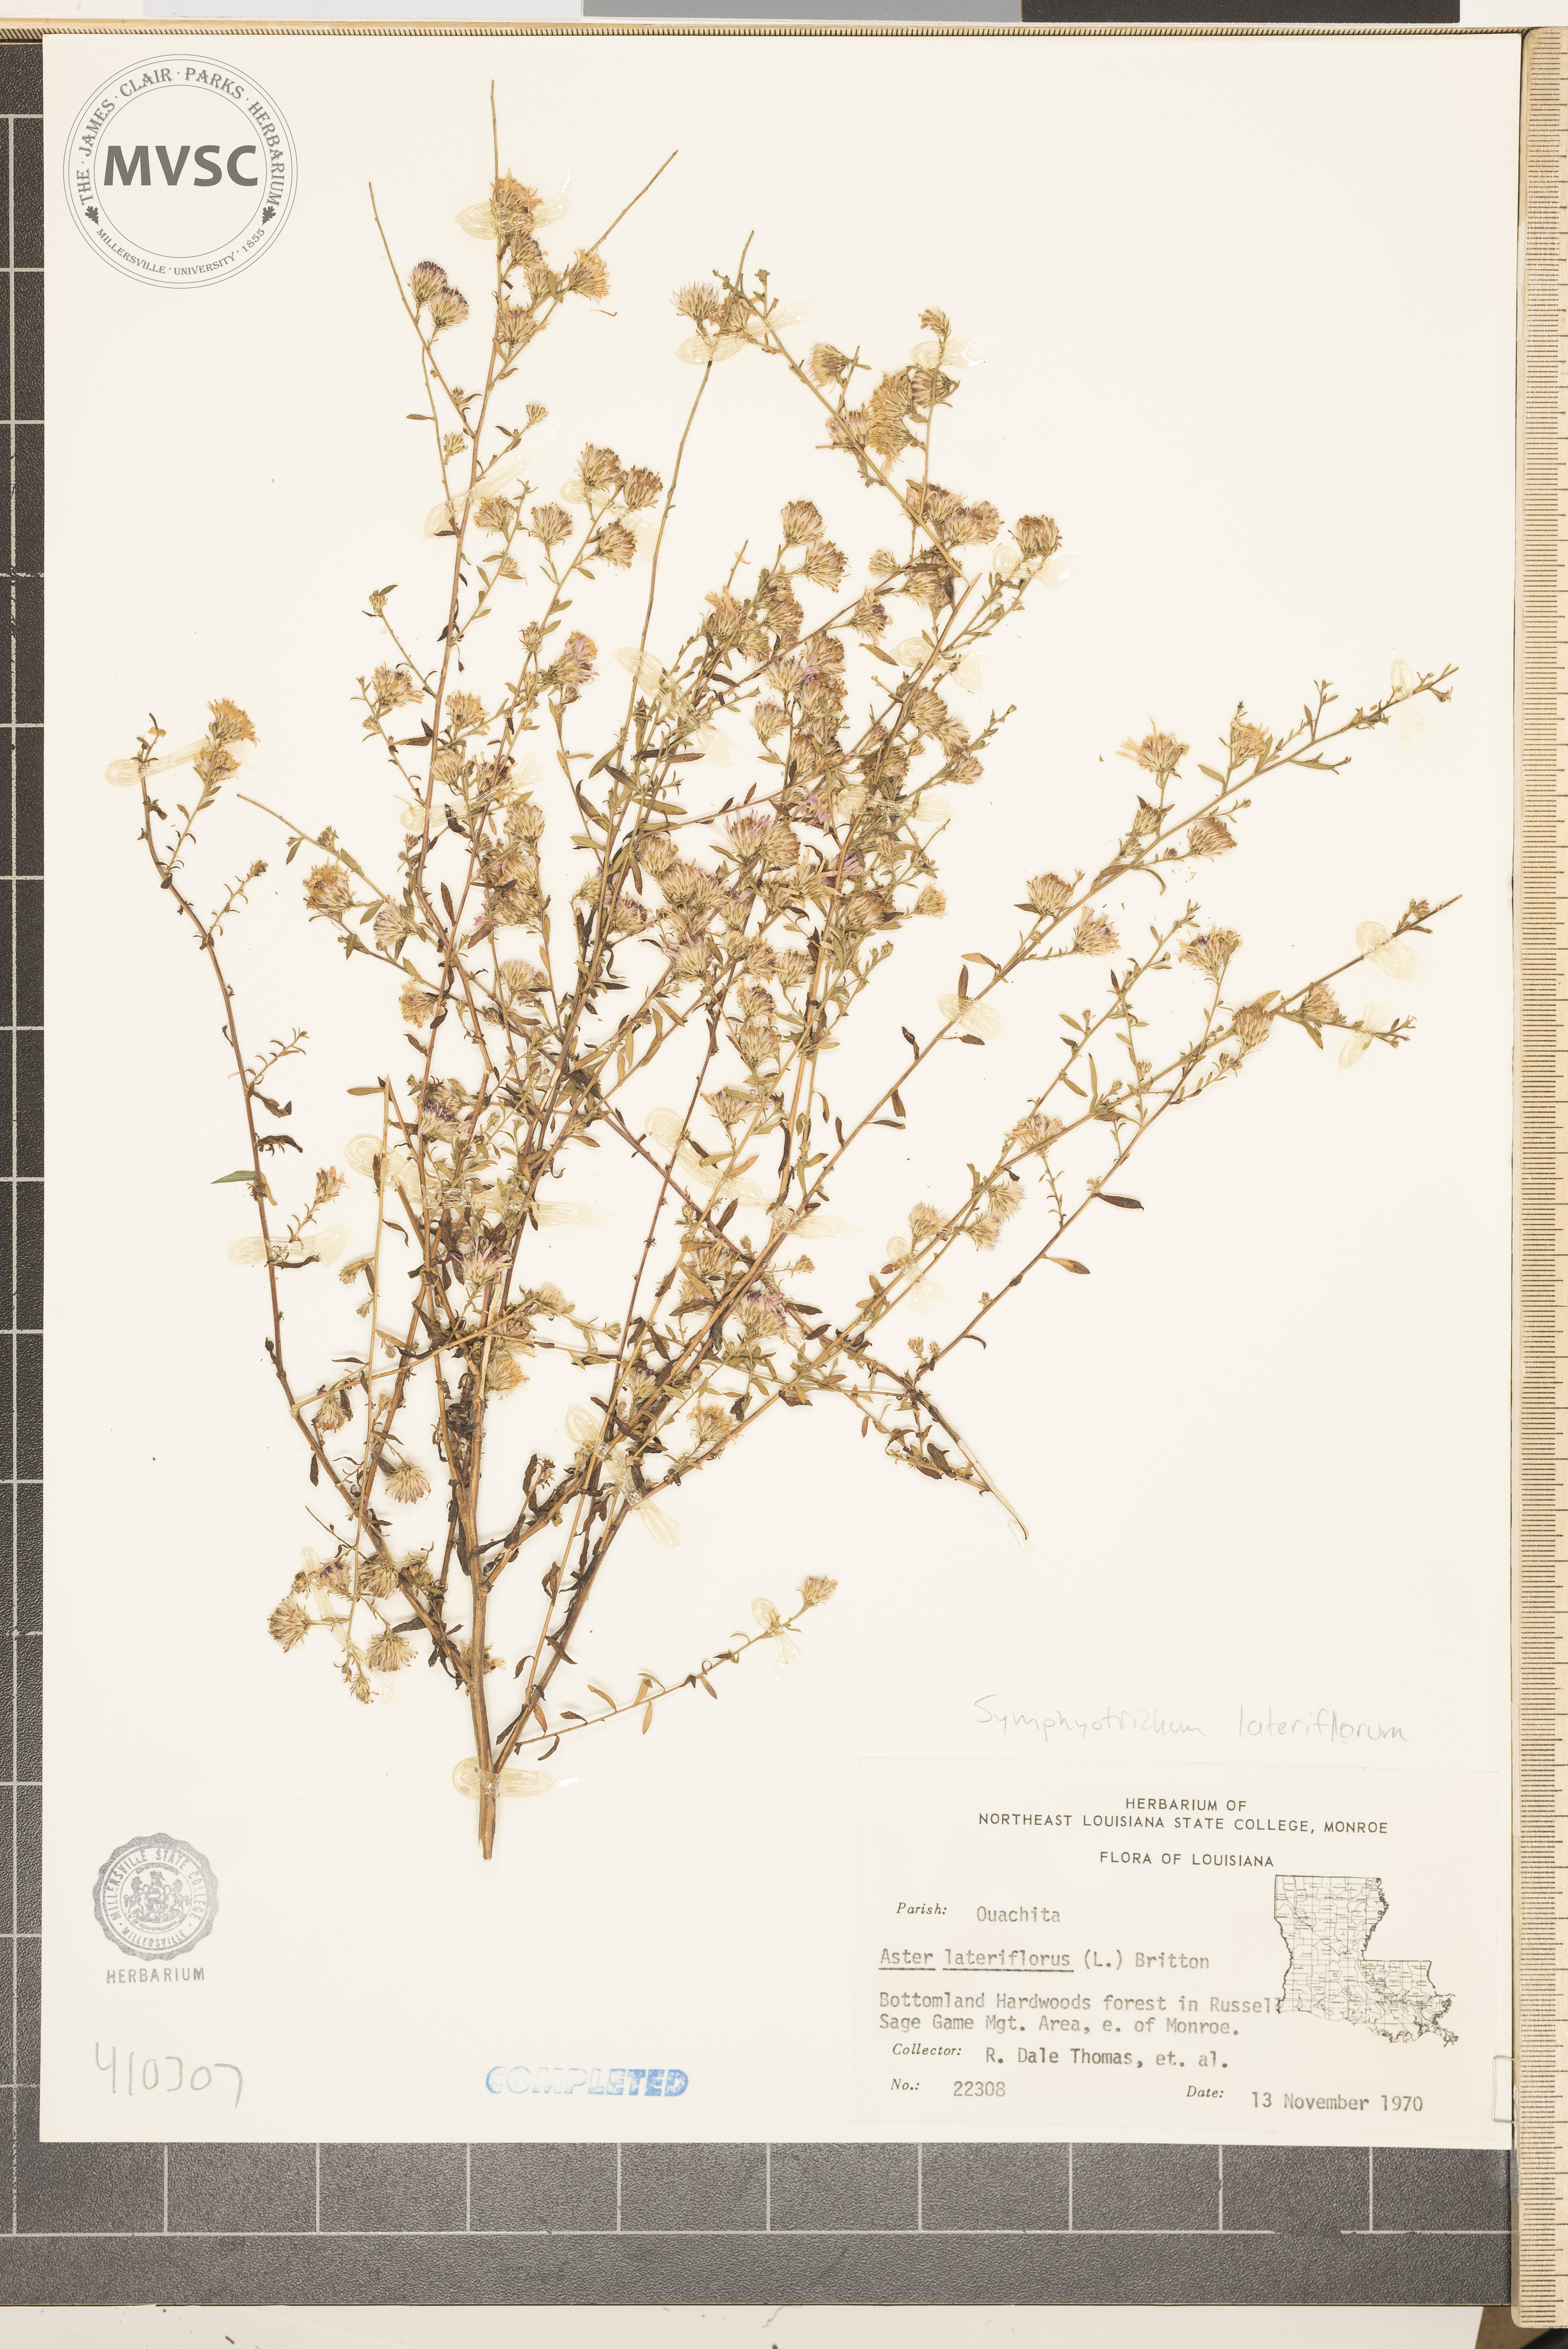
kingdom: Plantae
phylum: Tracheophyta
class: Magnoliopsida
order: Asterales
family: Asteraceae
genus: Symphyotrichum
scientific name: Symphyotrichum lateriflorum
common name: Aster
